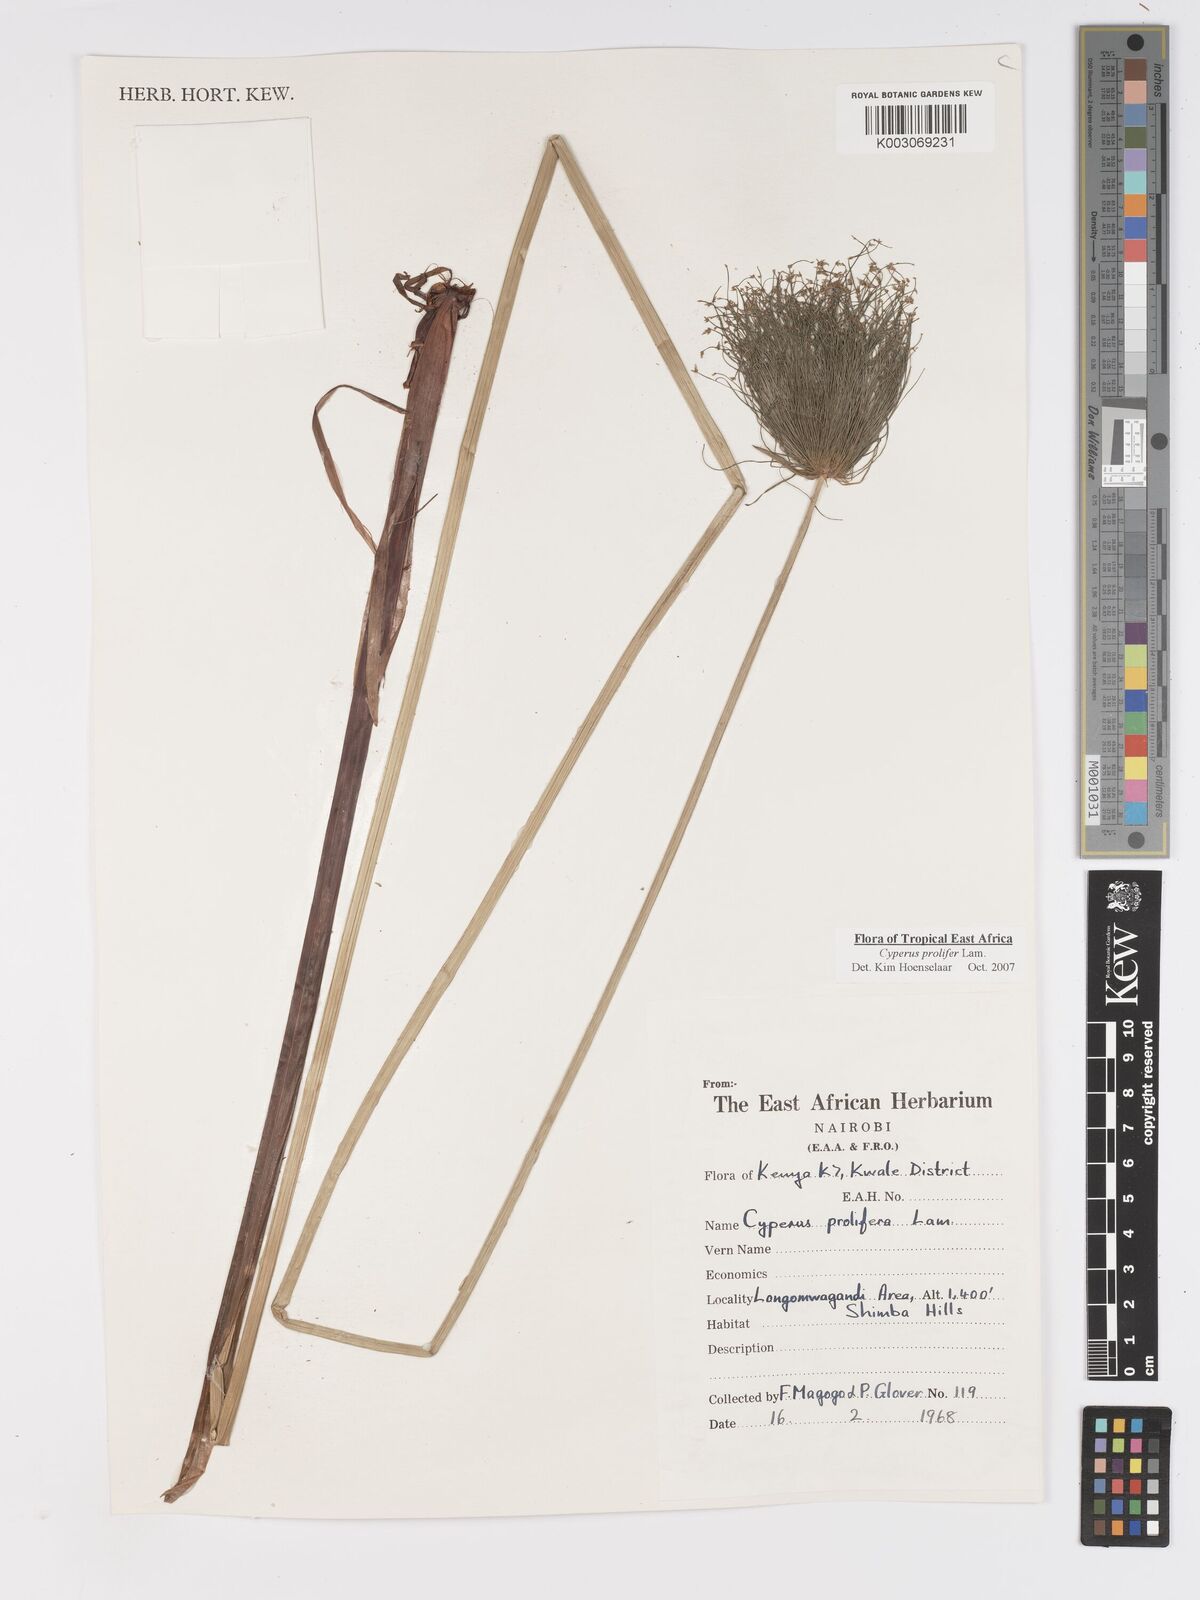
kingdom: Plantae
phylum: Tracheophyta
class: Liliopsida
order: Poales
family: Cyperaceae
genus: Cyperus
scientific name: Cyperus prolifer
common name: Miniature flatsedge
